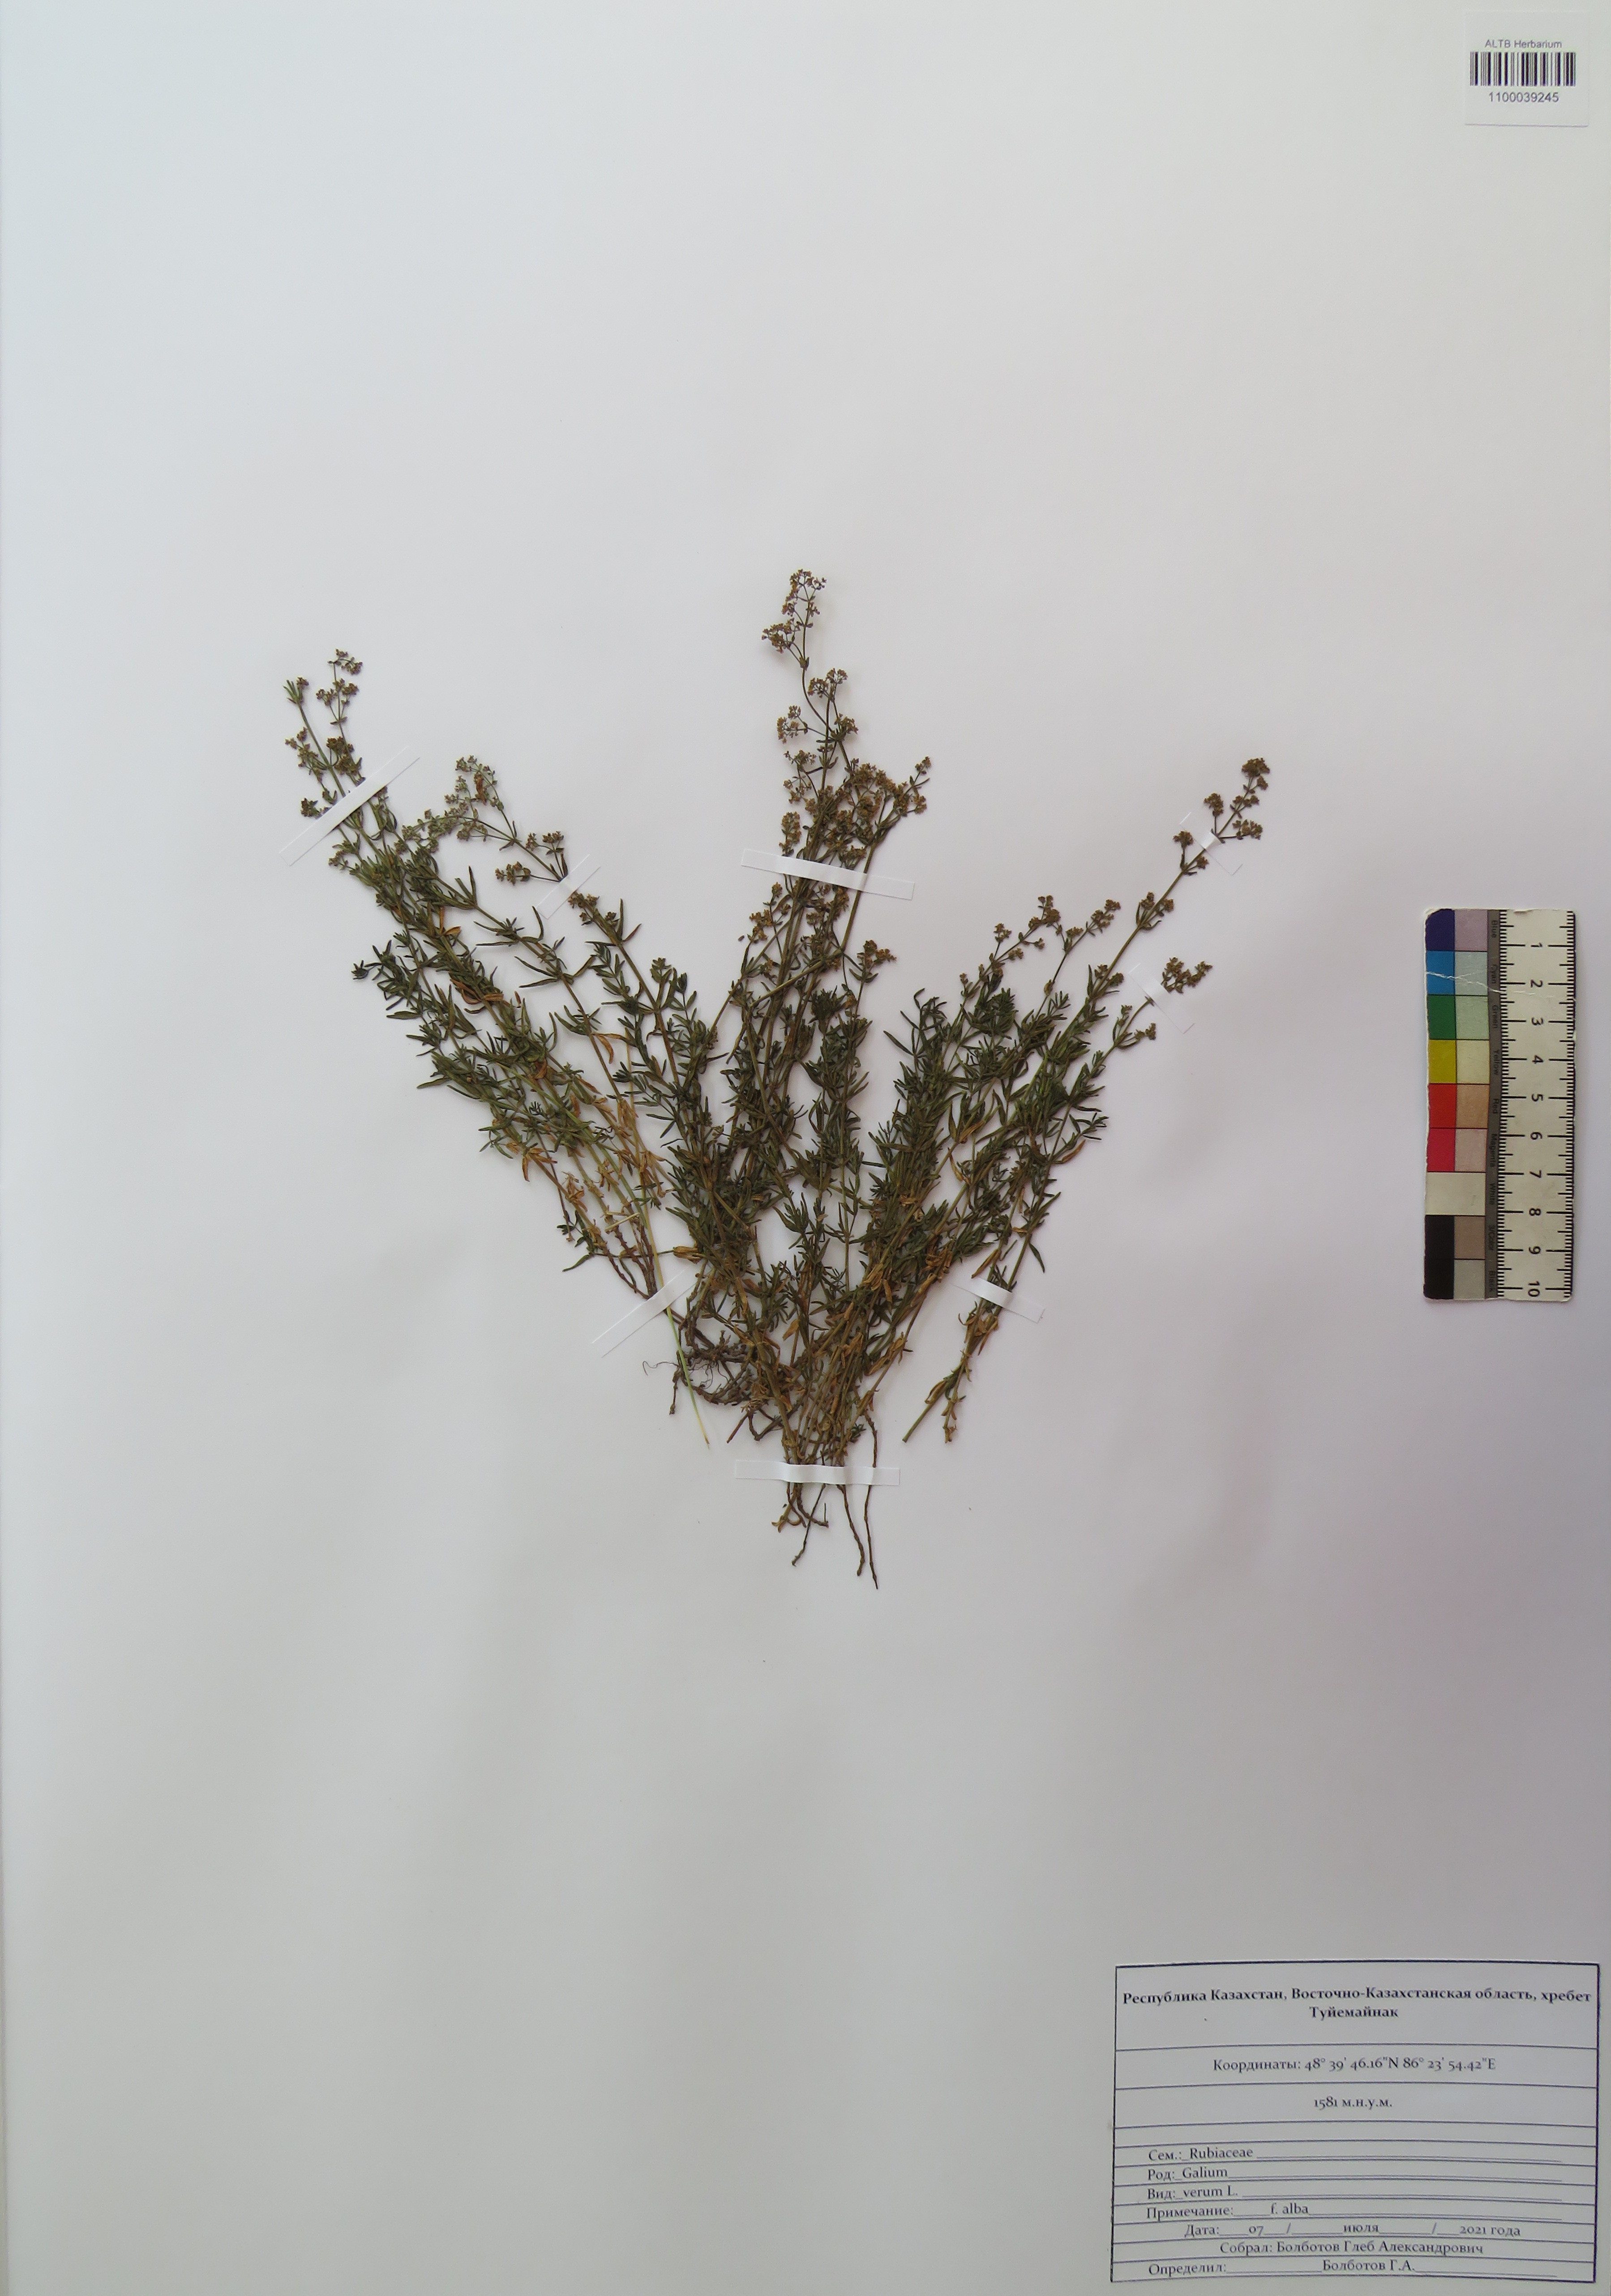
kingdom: Plantae
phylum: Tracheophyta
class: Magnoliopsida
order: Gentianales
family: Rubiaceae
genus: Galium
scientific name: Galium verum
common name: Lady's bedstraw
